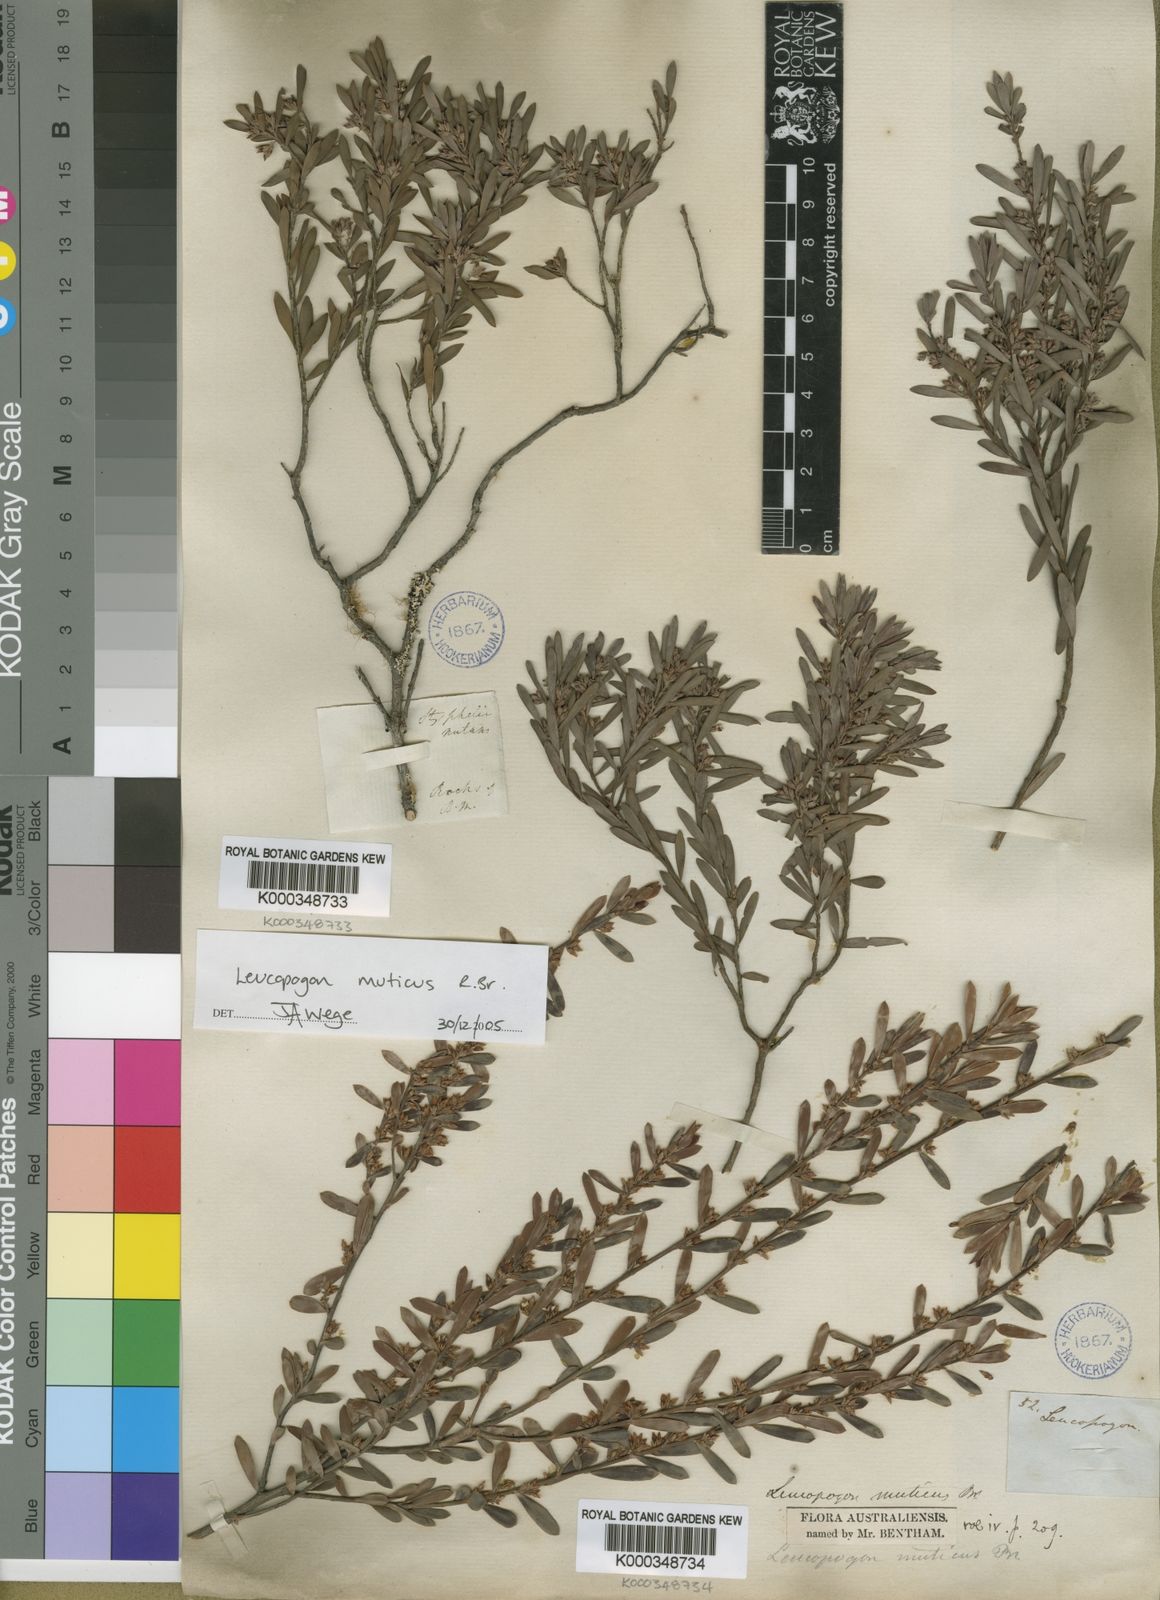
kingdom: Plantae
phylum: Tracheophyta
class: Magnoliopsida
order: Ericales
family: Ericaceae
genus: Styphelia
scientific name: Styphelia mutica
